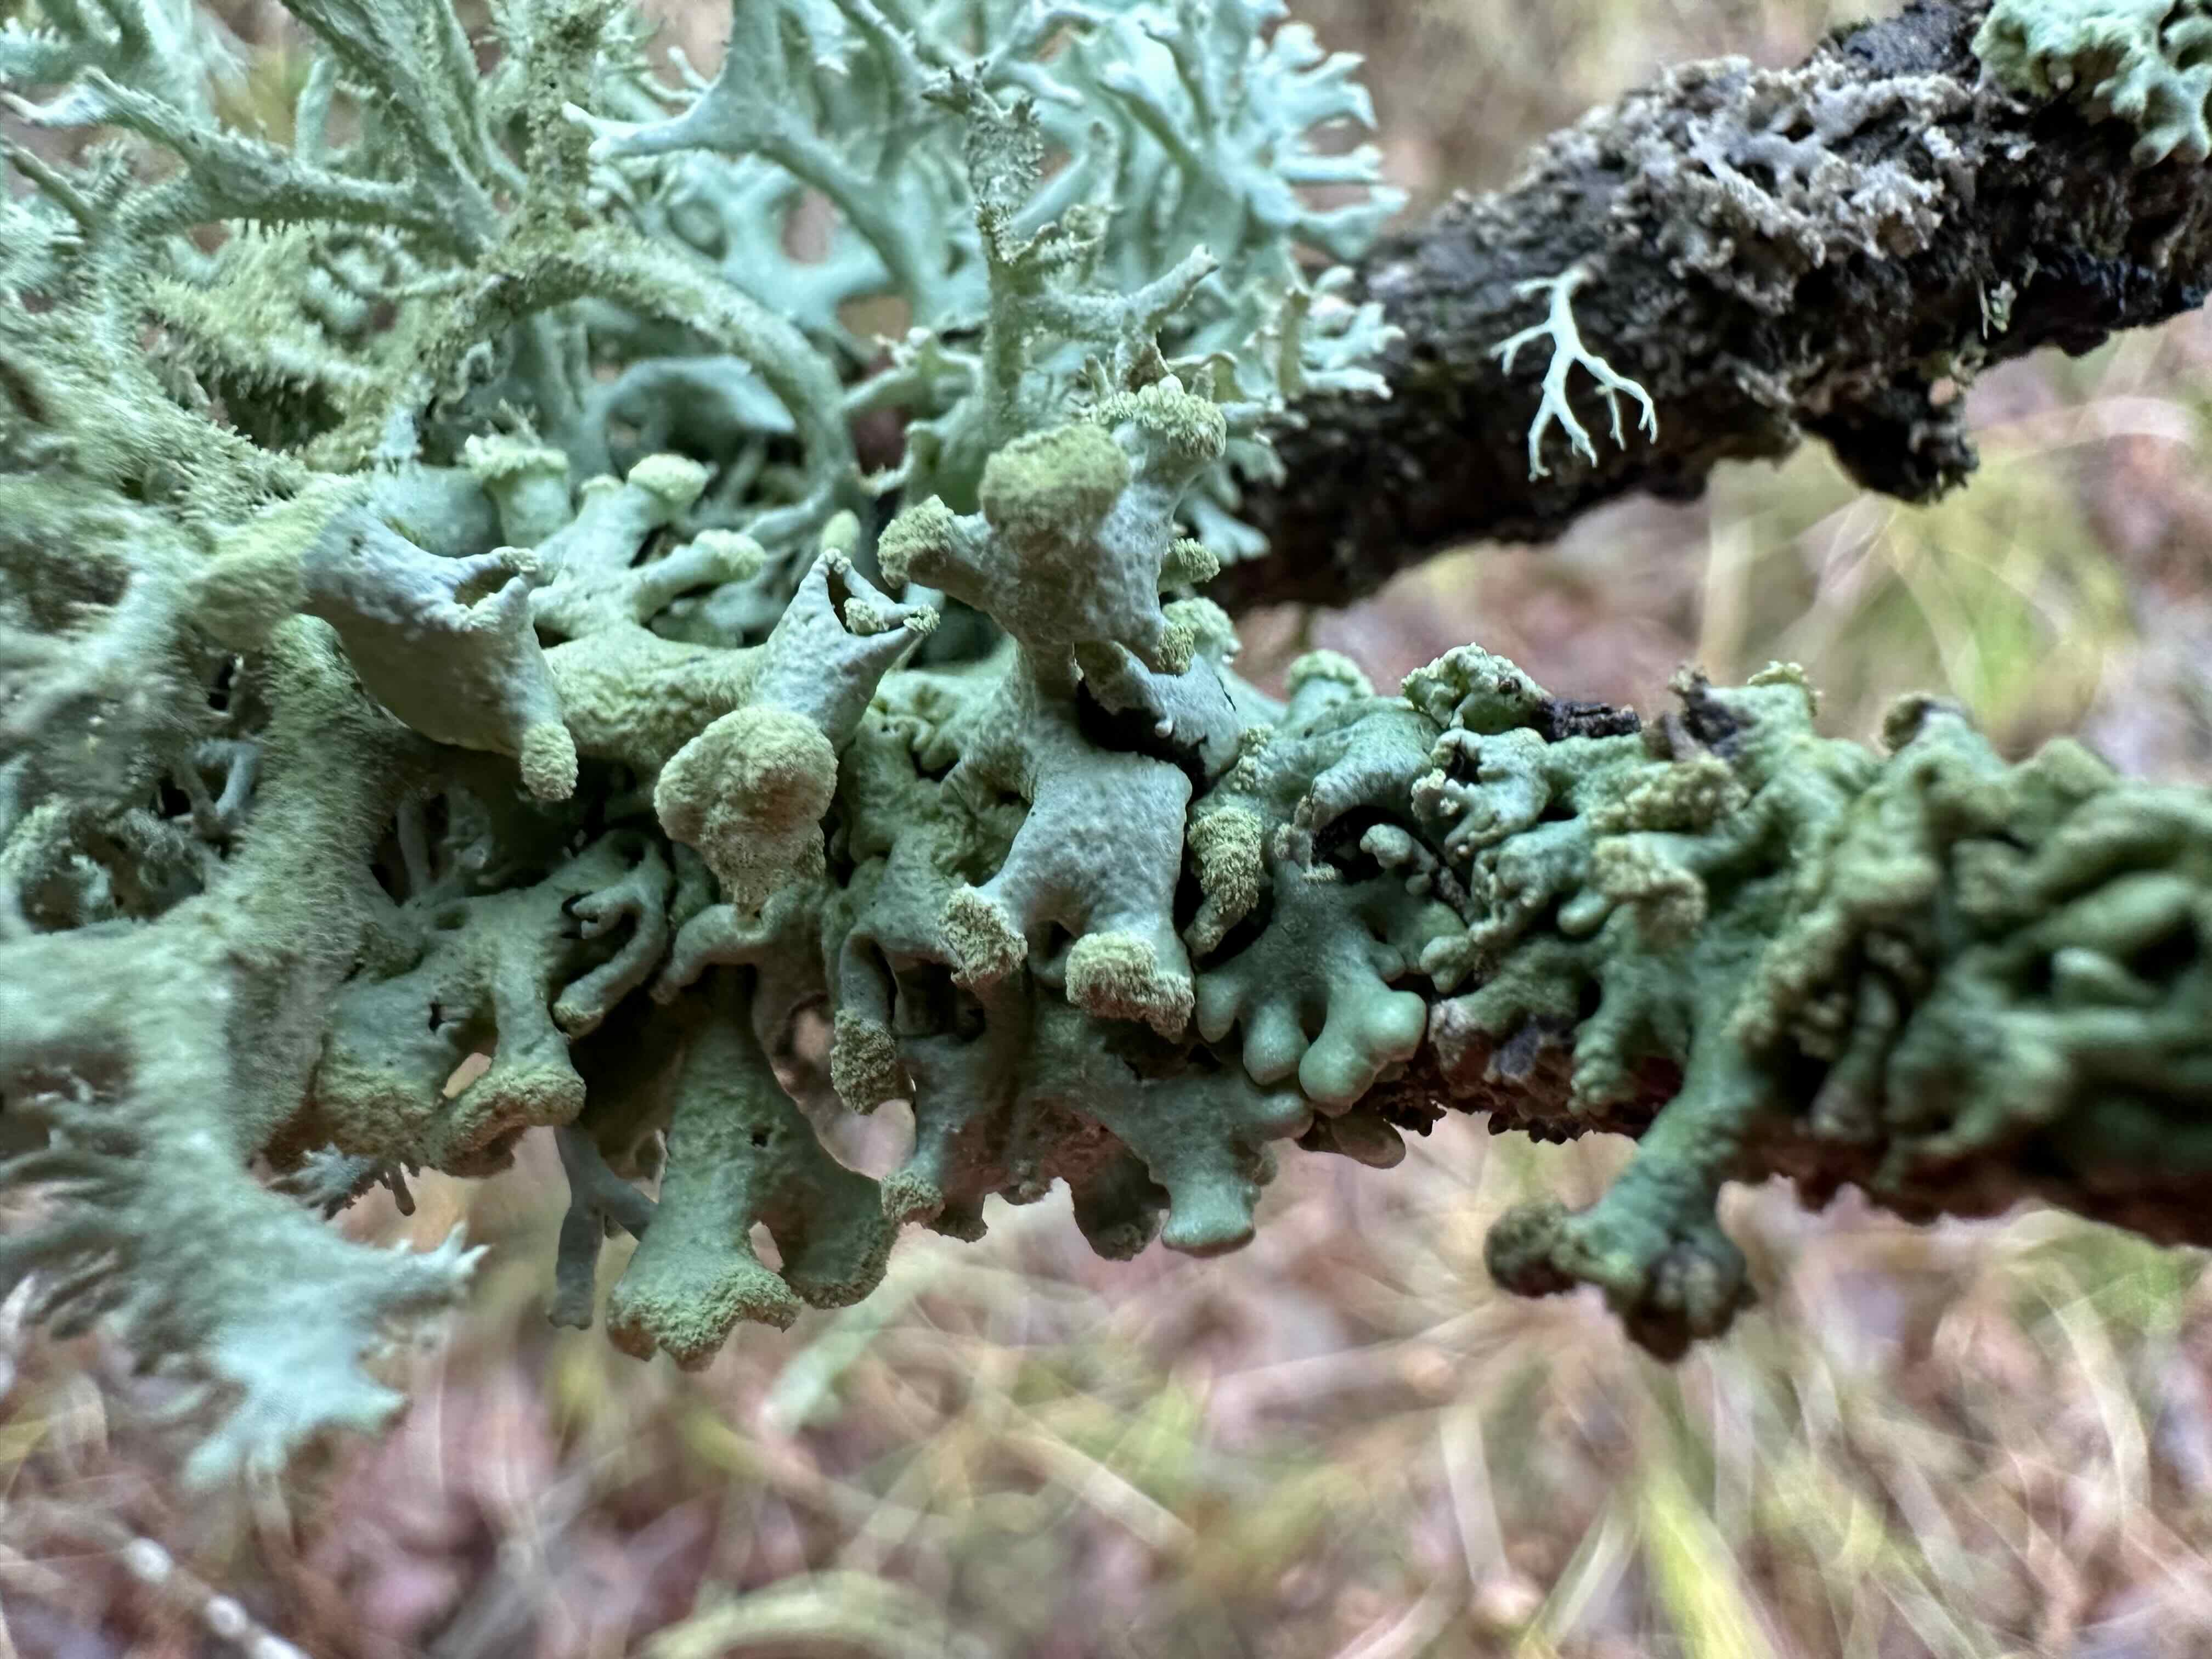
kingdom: Fungi
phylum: Ascomycota
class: Lecanoromycetes
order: Lecanorales
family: Parmeliaceae
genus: Hypogymnia
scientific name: Hypogymnia tubulosa
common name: finger-kvistlav
